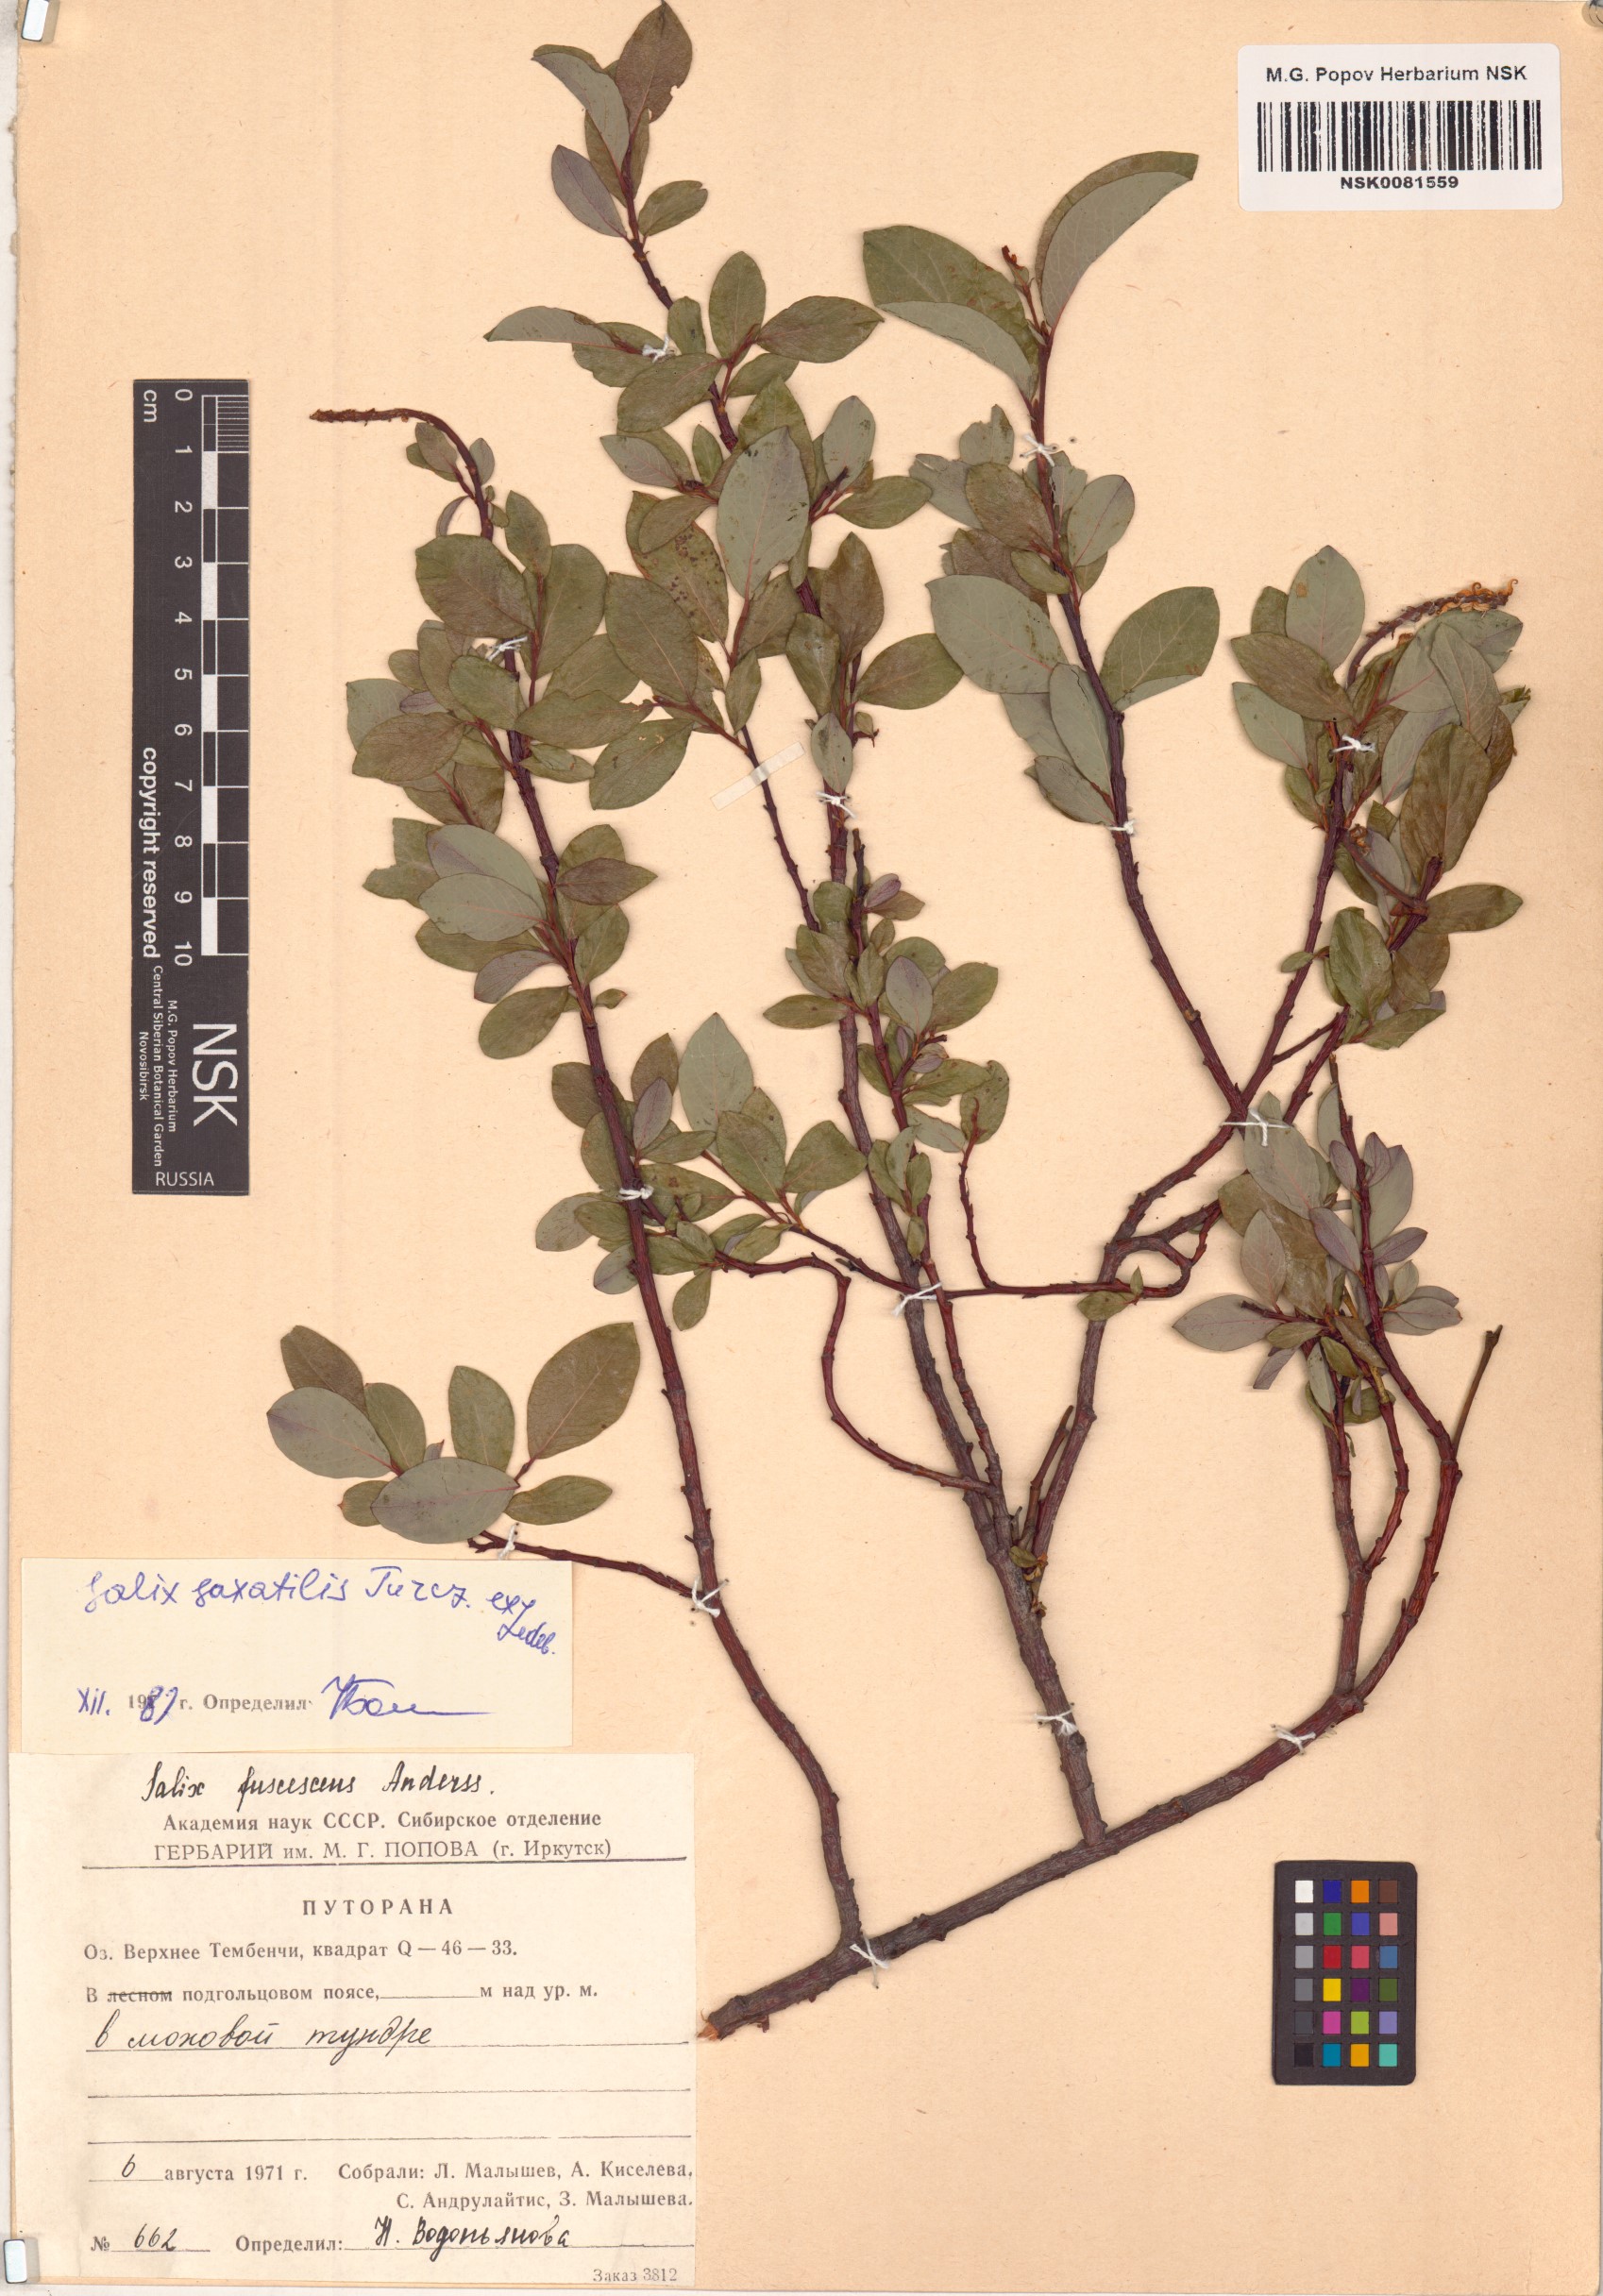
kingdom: Plantae
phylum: Tracheophyta
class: Magnoliopsida
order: Malpighiales
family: Salicaceae
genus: Salix
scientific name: Salix saxatilis
